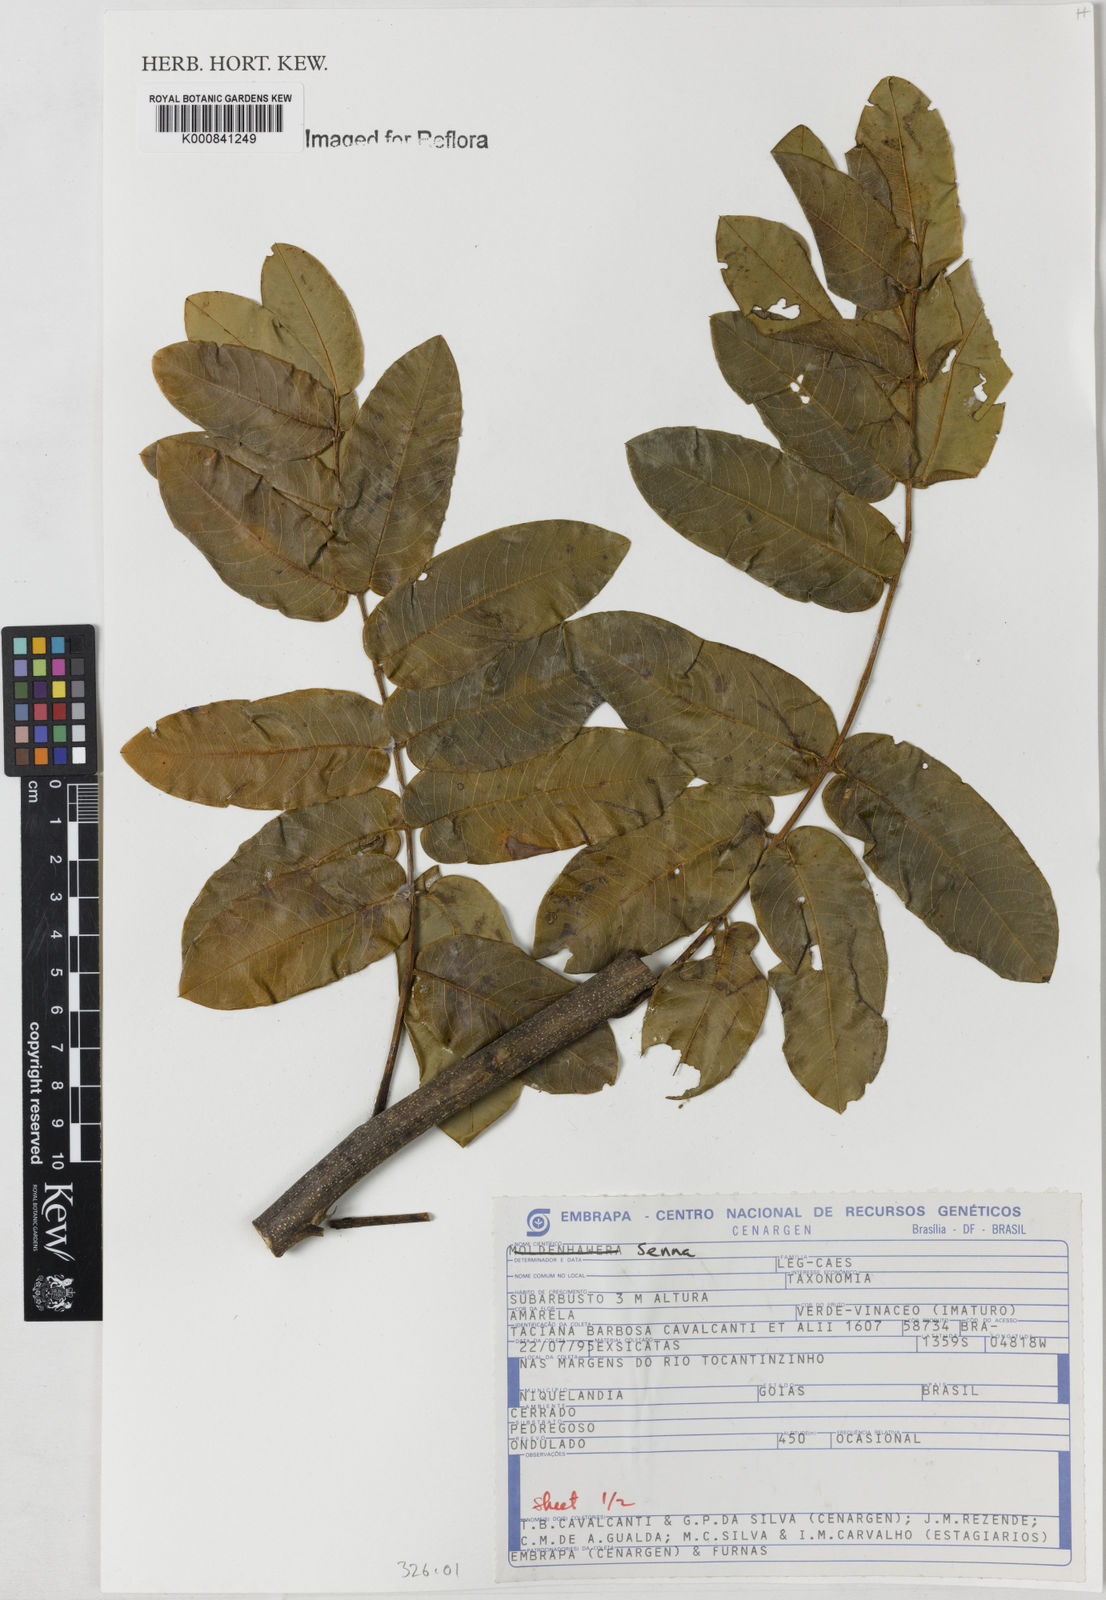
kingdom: Plantae
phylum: Tracheophyta
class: Magnoliopsida
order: Fabales
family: Fabaceae
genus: Senna
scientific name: Senna
